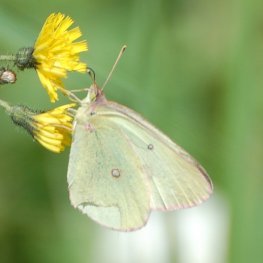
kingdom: Animalia
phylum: Arthropoda
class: Insecta
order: Lepidoptera
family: Pieridae
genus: Colias
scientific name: Colias interior
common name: Pink-edged Sulphur
